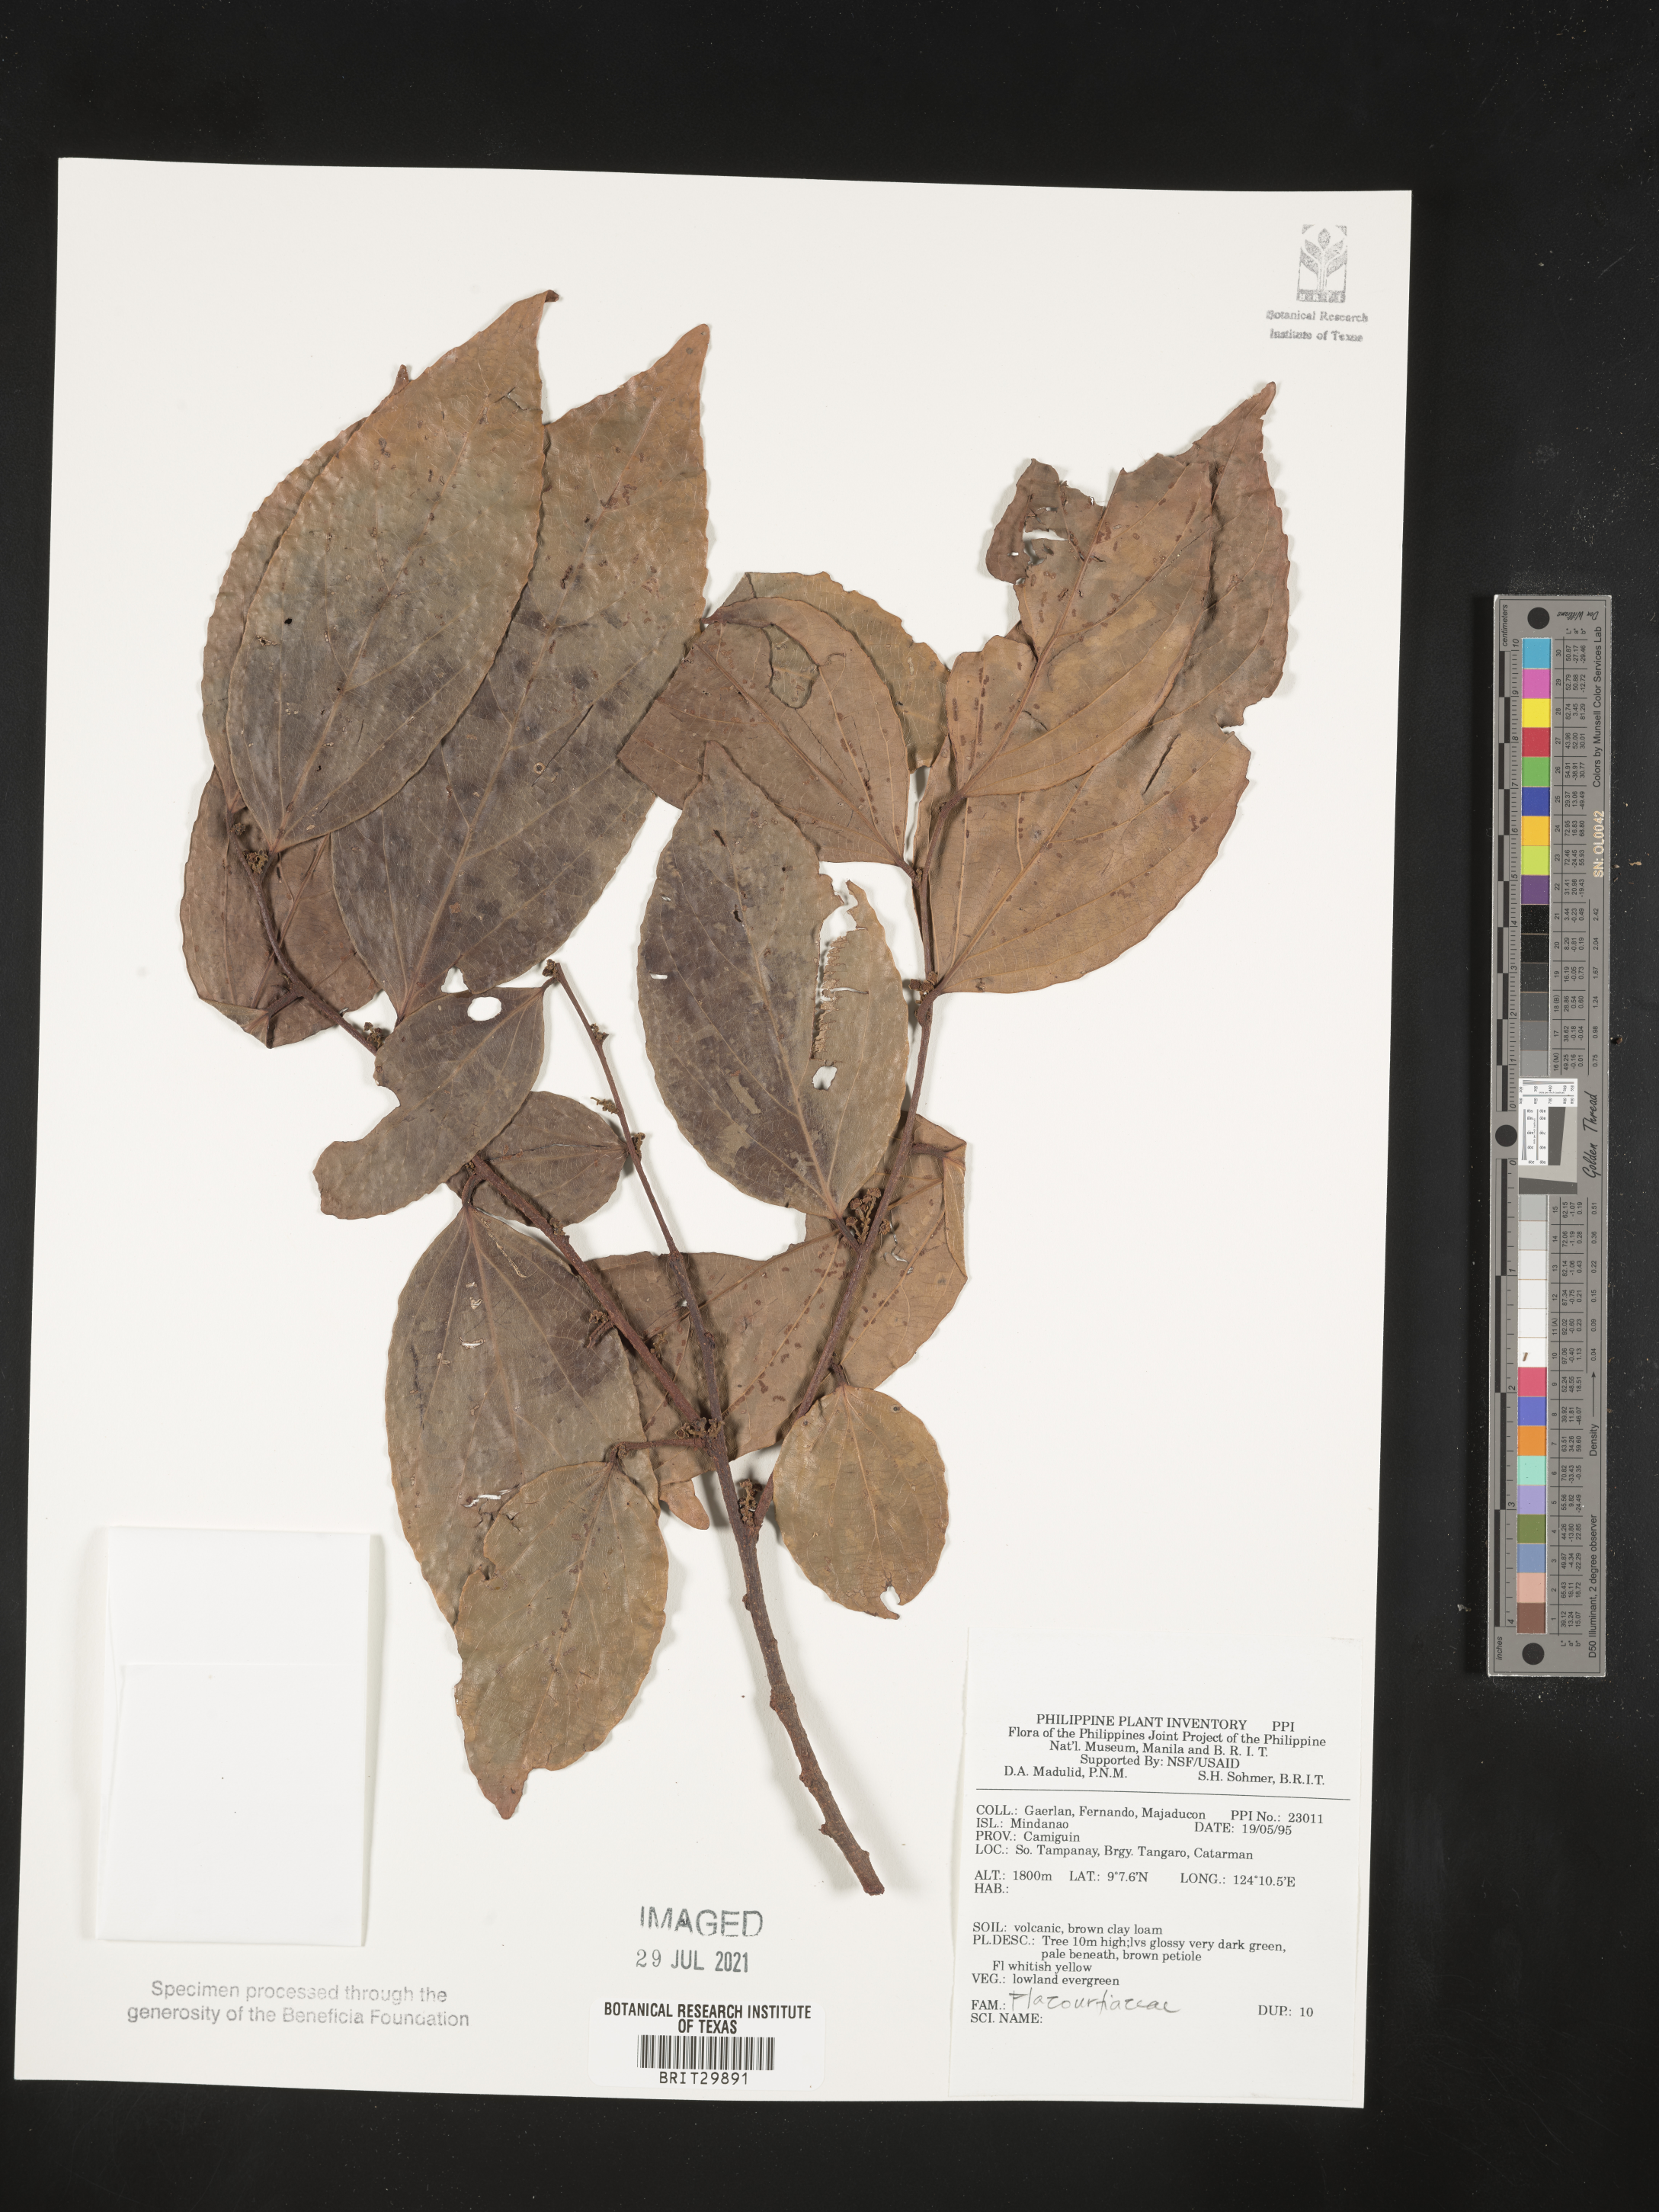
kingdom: Plantae
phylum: Tracheophyta
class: Magnoliopsida
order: Malpighiales
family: Flacourtiaceae
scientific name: Flacourtiaceae
